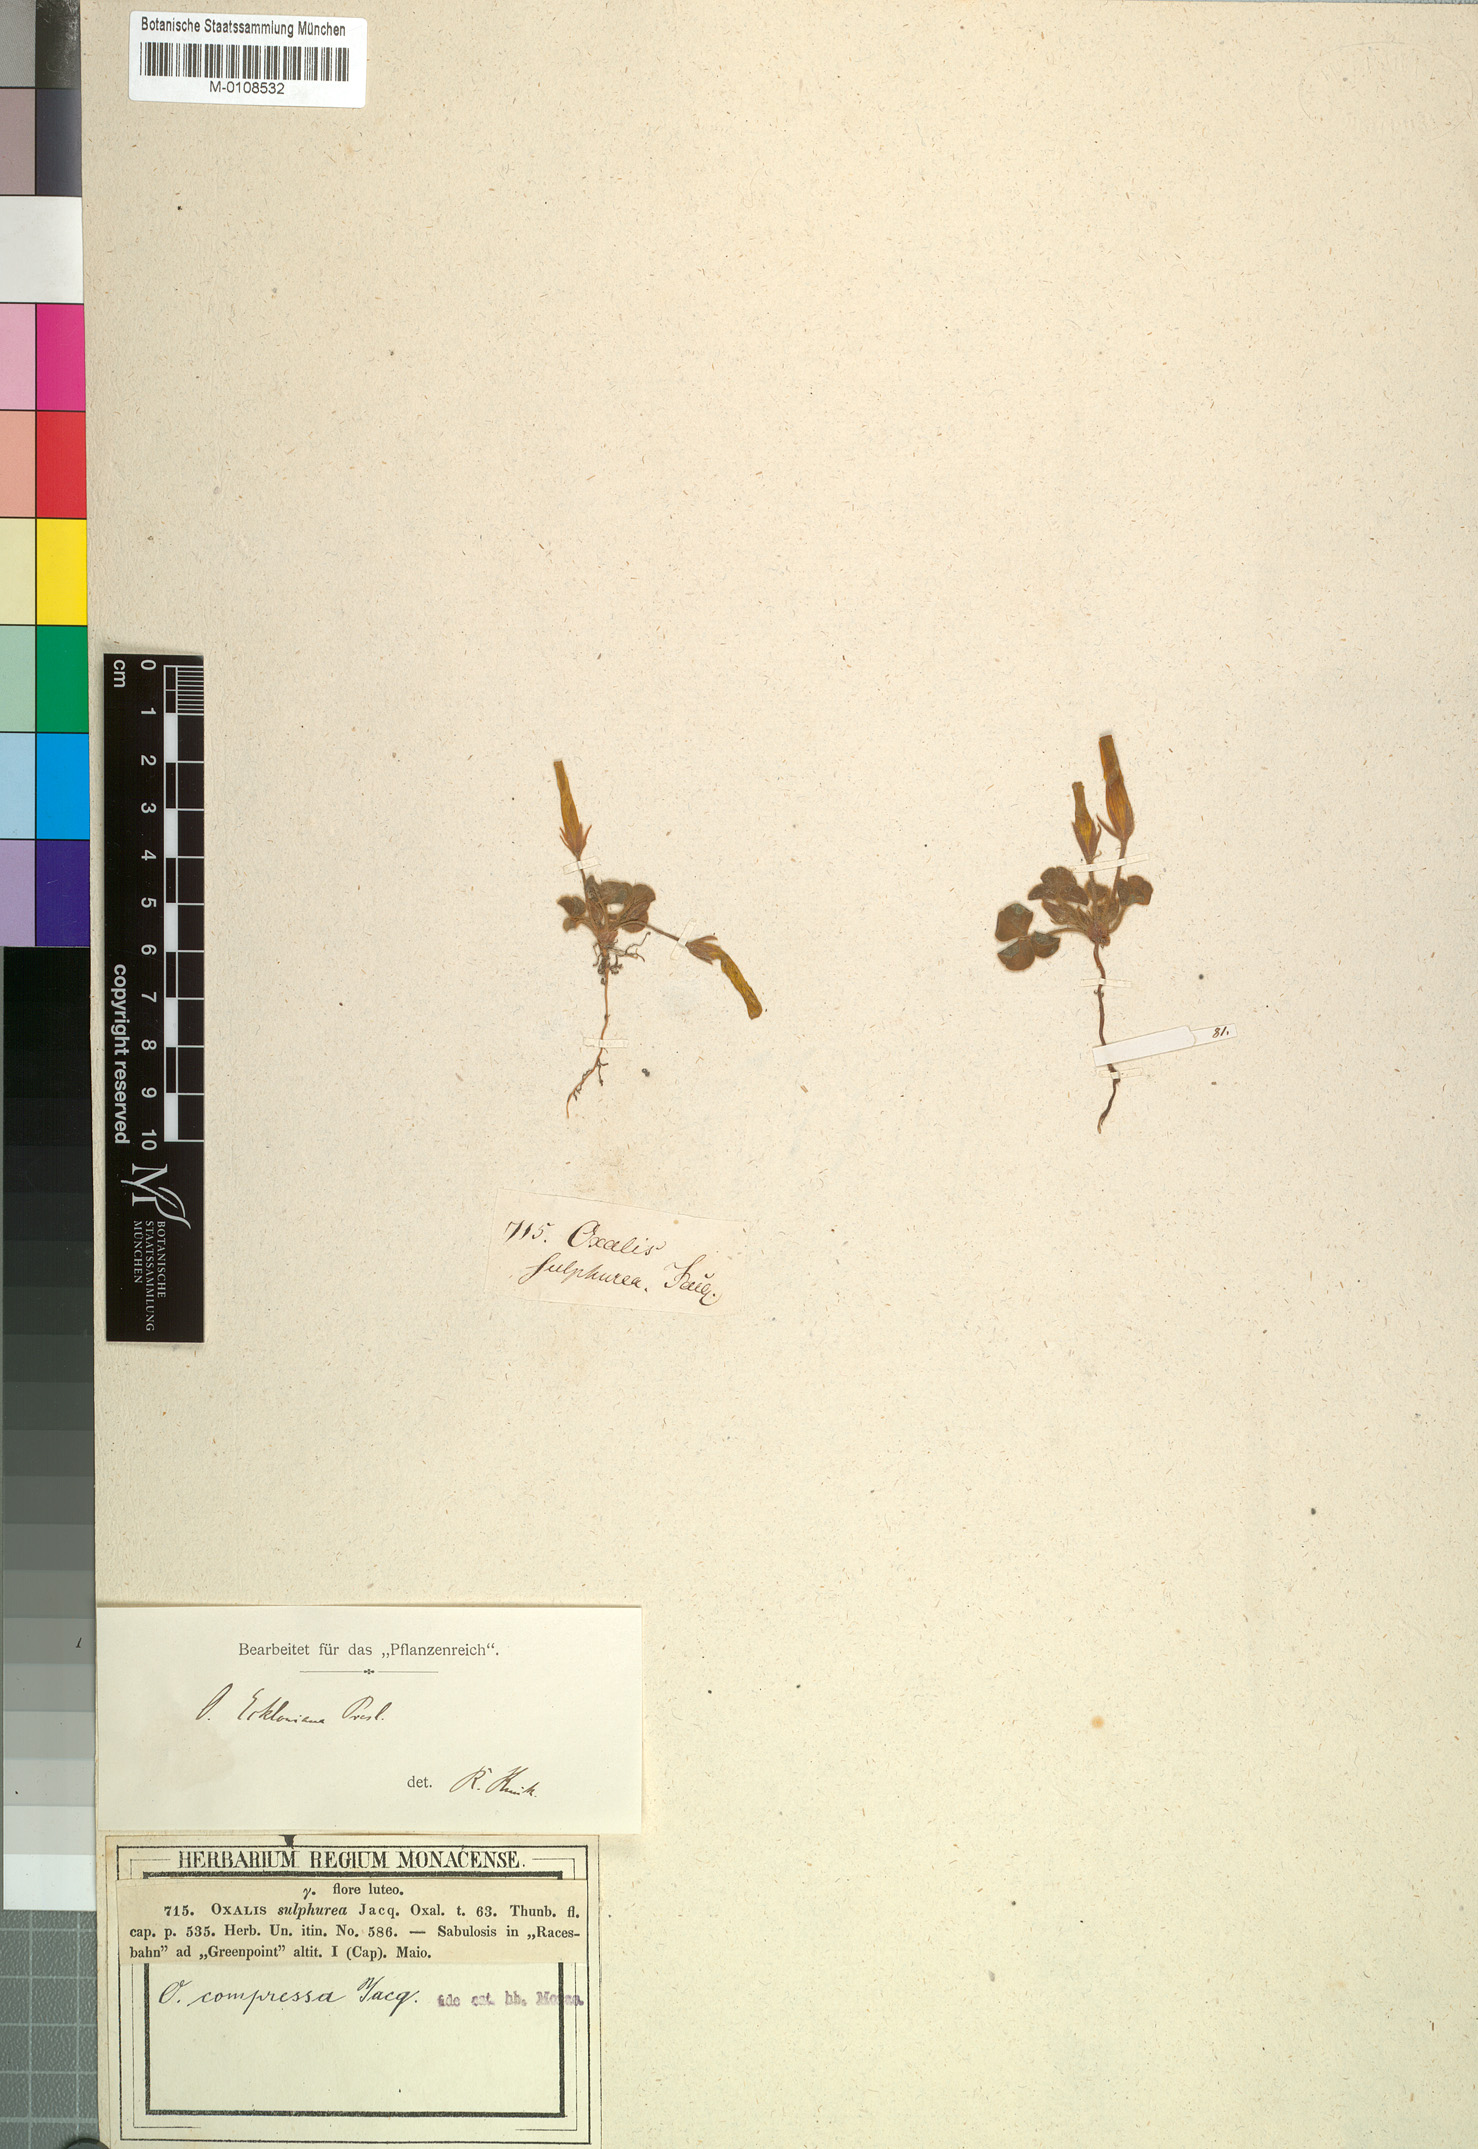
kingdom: Plantae
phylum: Tracheophyta
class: Magnoliopsida
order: Oxalidales
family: Oxalidaceae
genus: Oxalis
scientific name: Oxalis compressa
